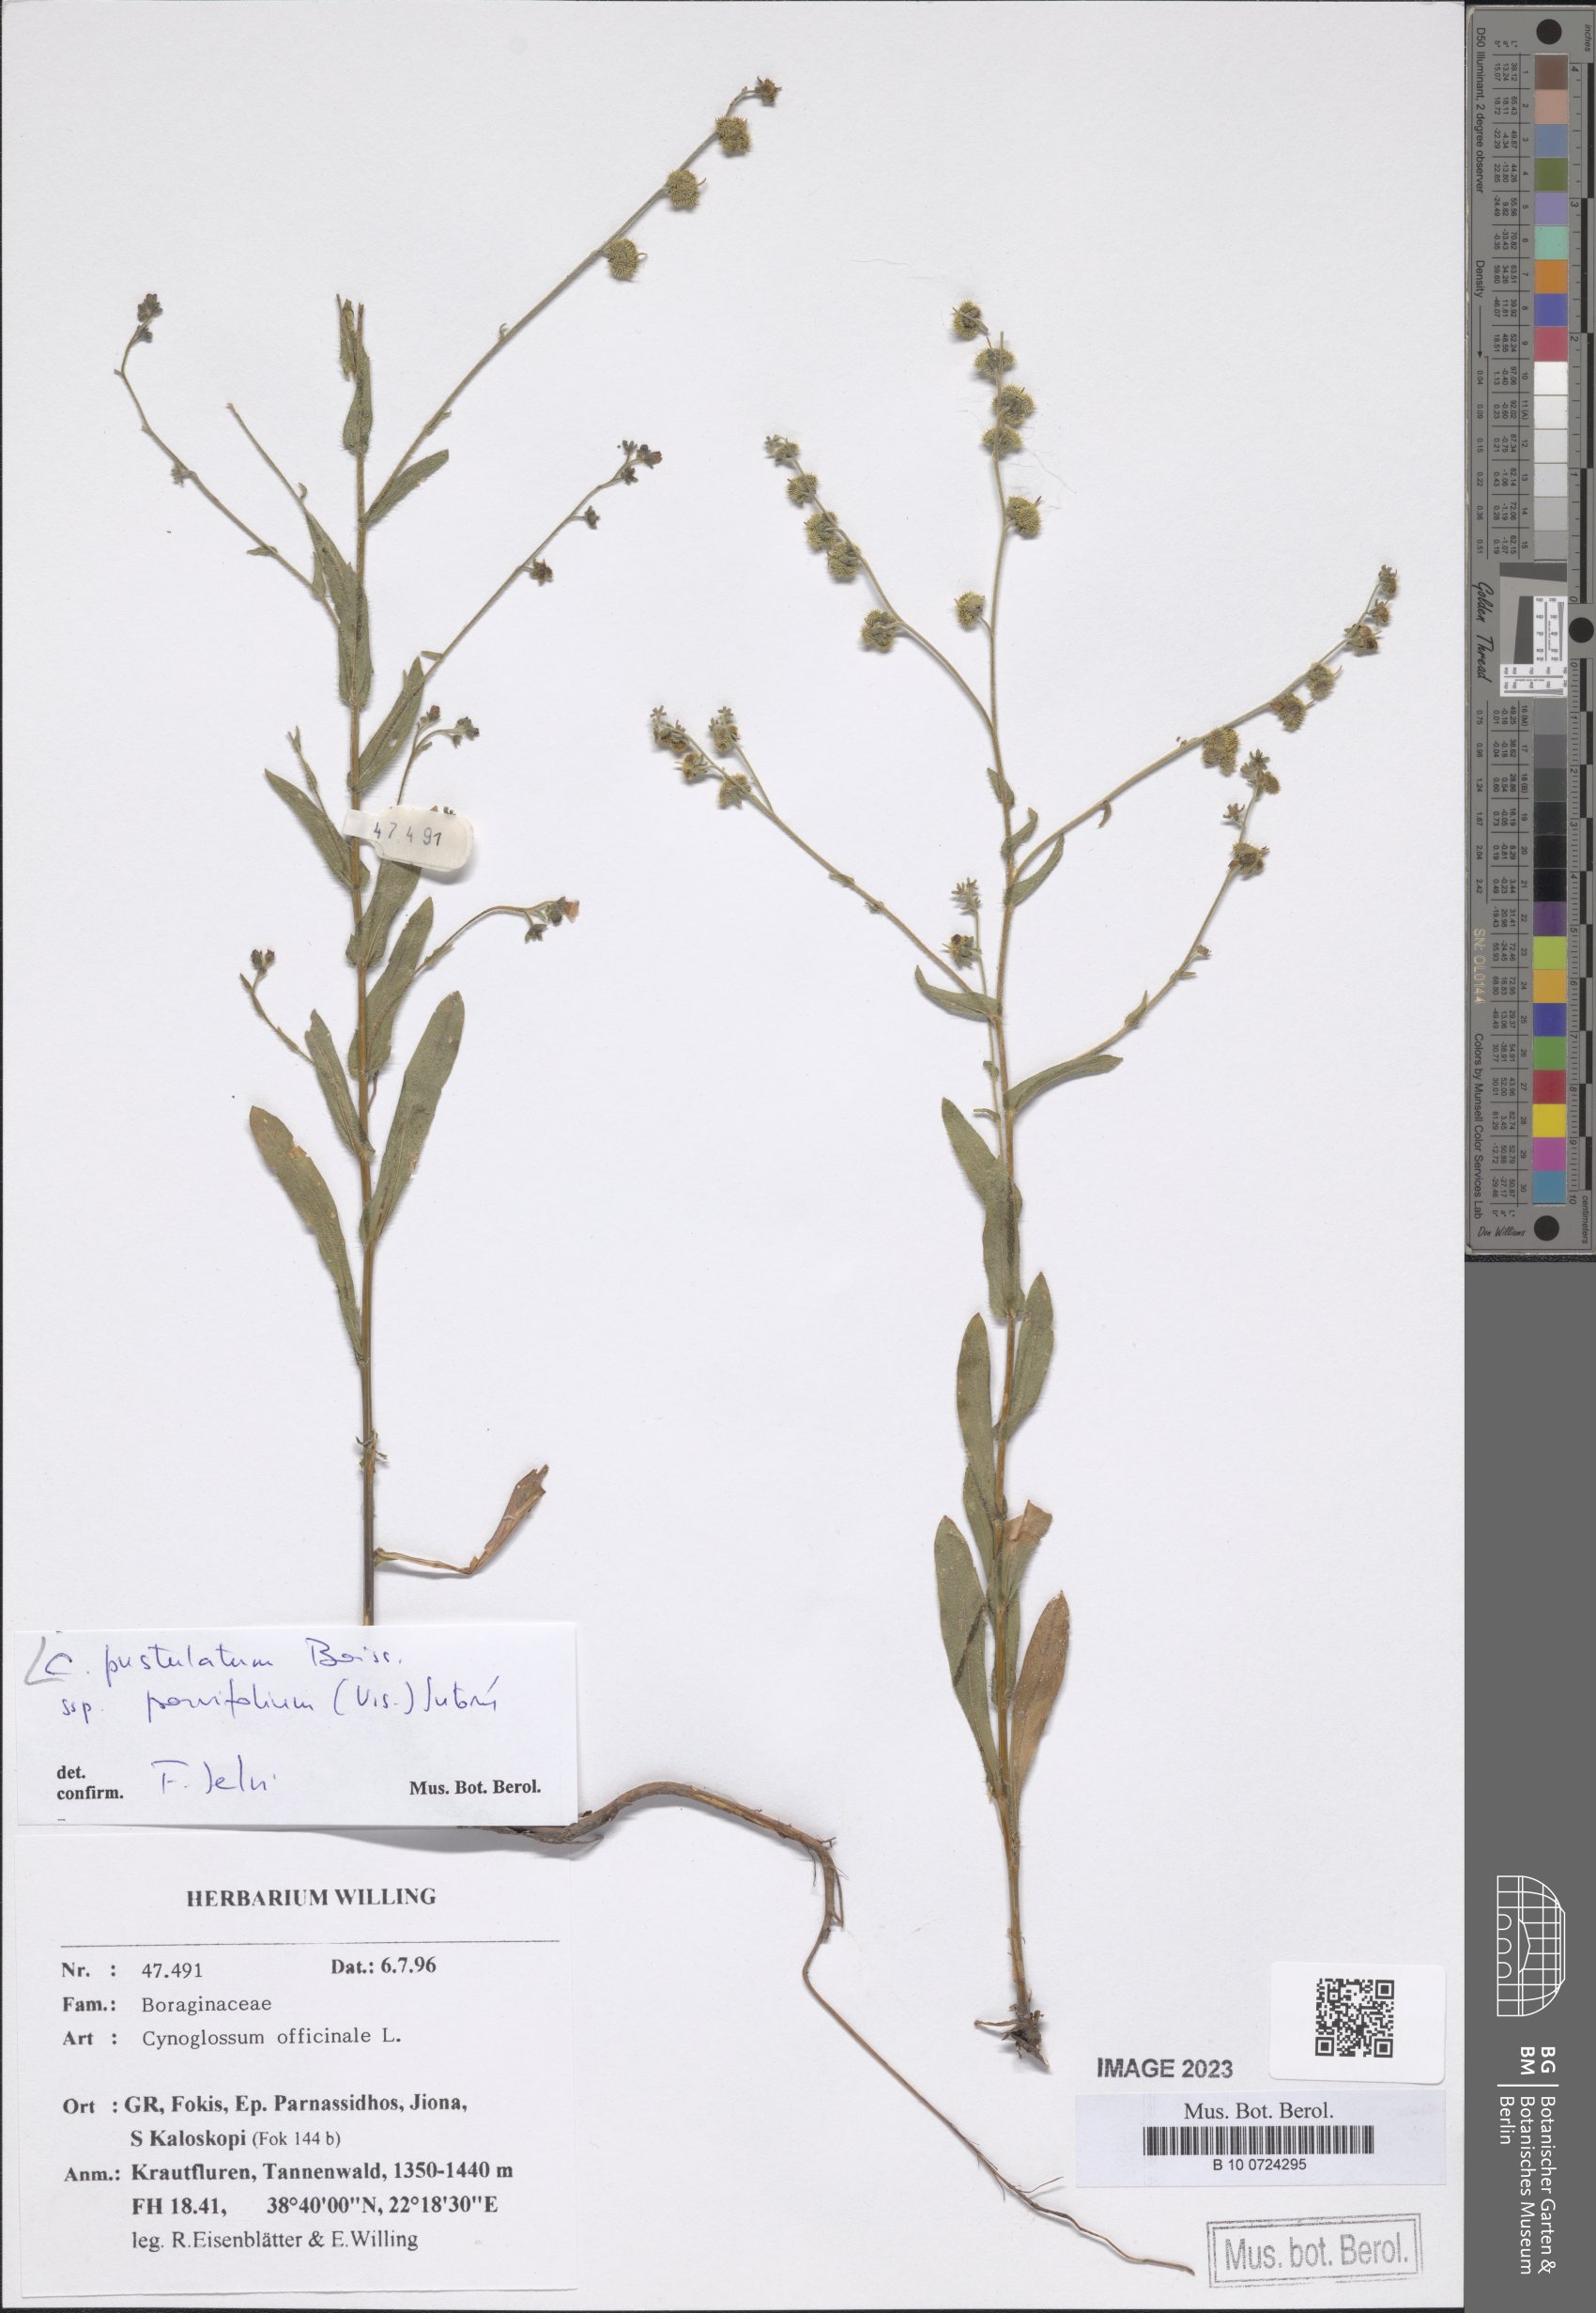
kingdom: Plantae
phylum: Tracheophyta
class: Magnoliopsida
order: Boraginales
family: Boraginaceae
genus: Cynoglossum
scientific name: Cynoglossum pustulatum
